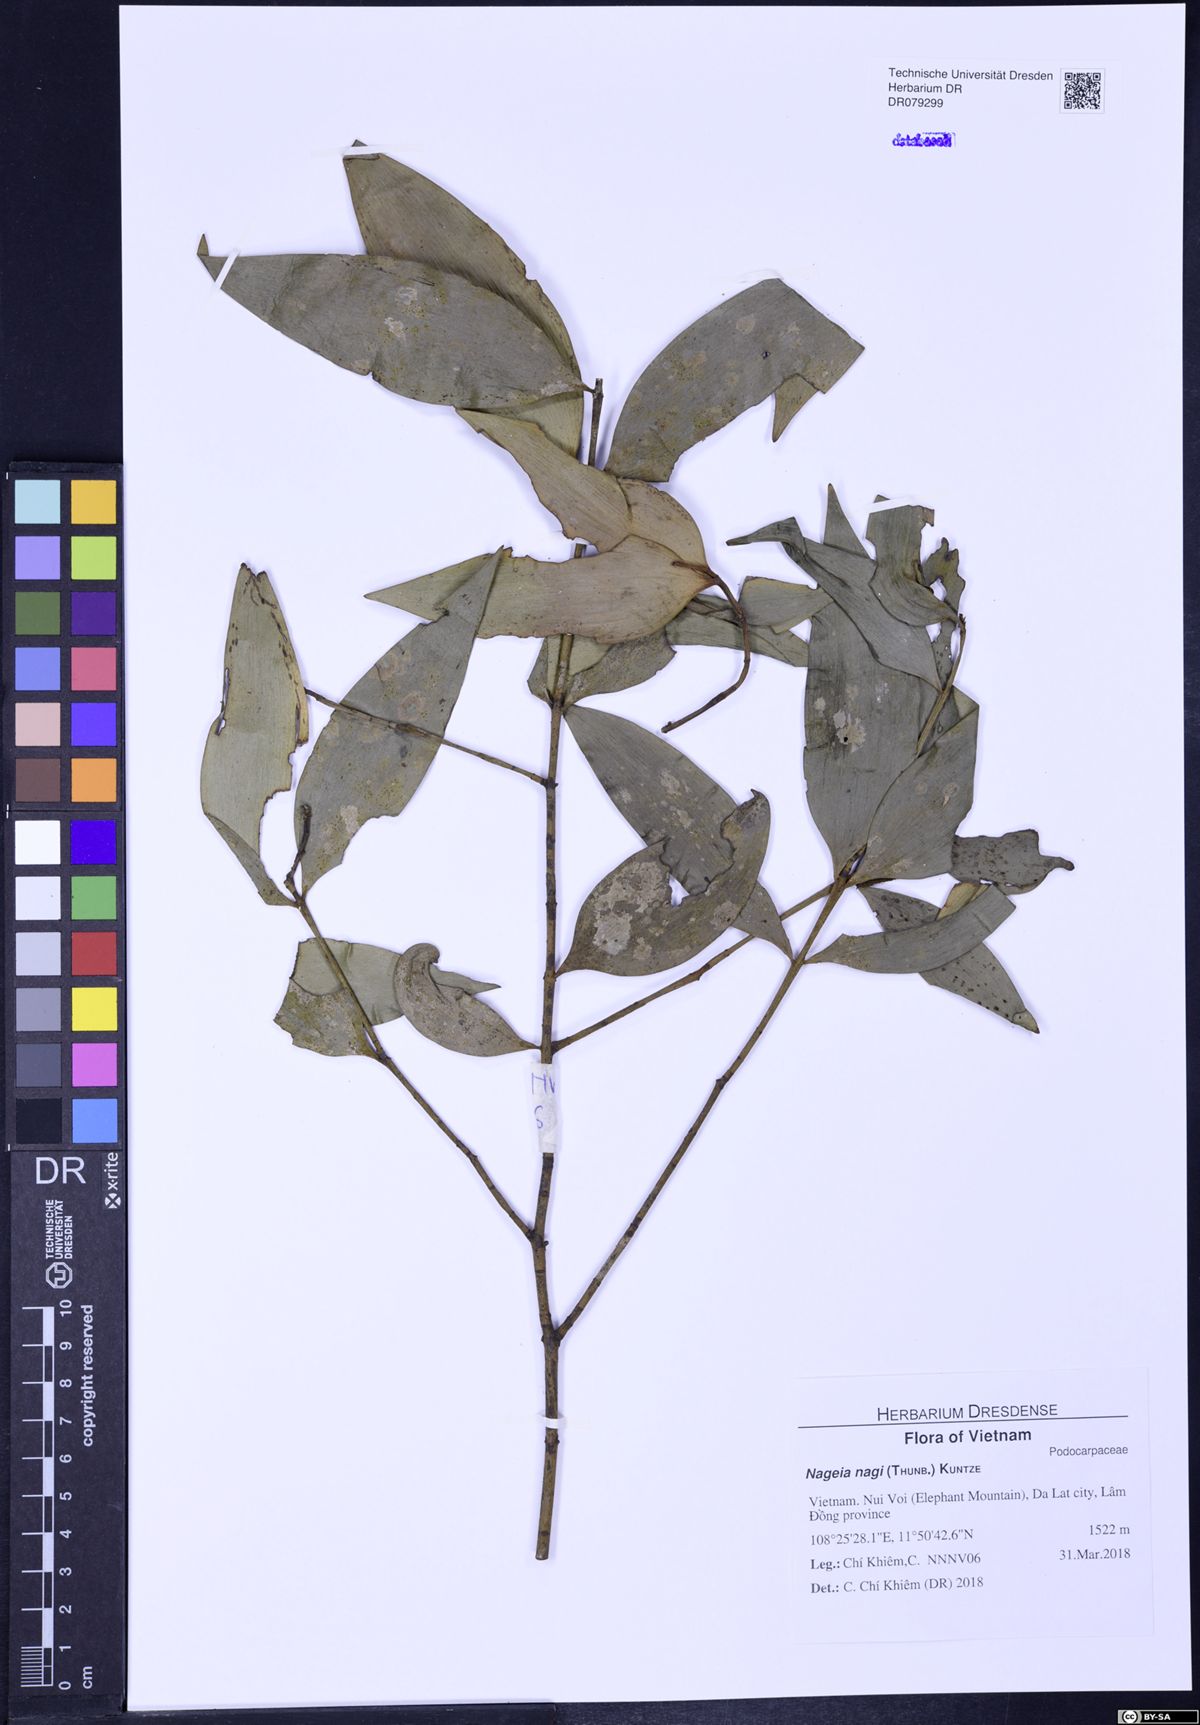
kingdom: Plantae
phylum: Tracheophyta
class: Pinopsida
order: Pinales
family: Podocarpaceae
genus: Nageia
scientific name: Nageia nagi
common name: Kaphal
